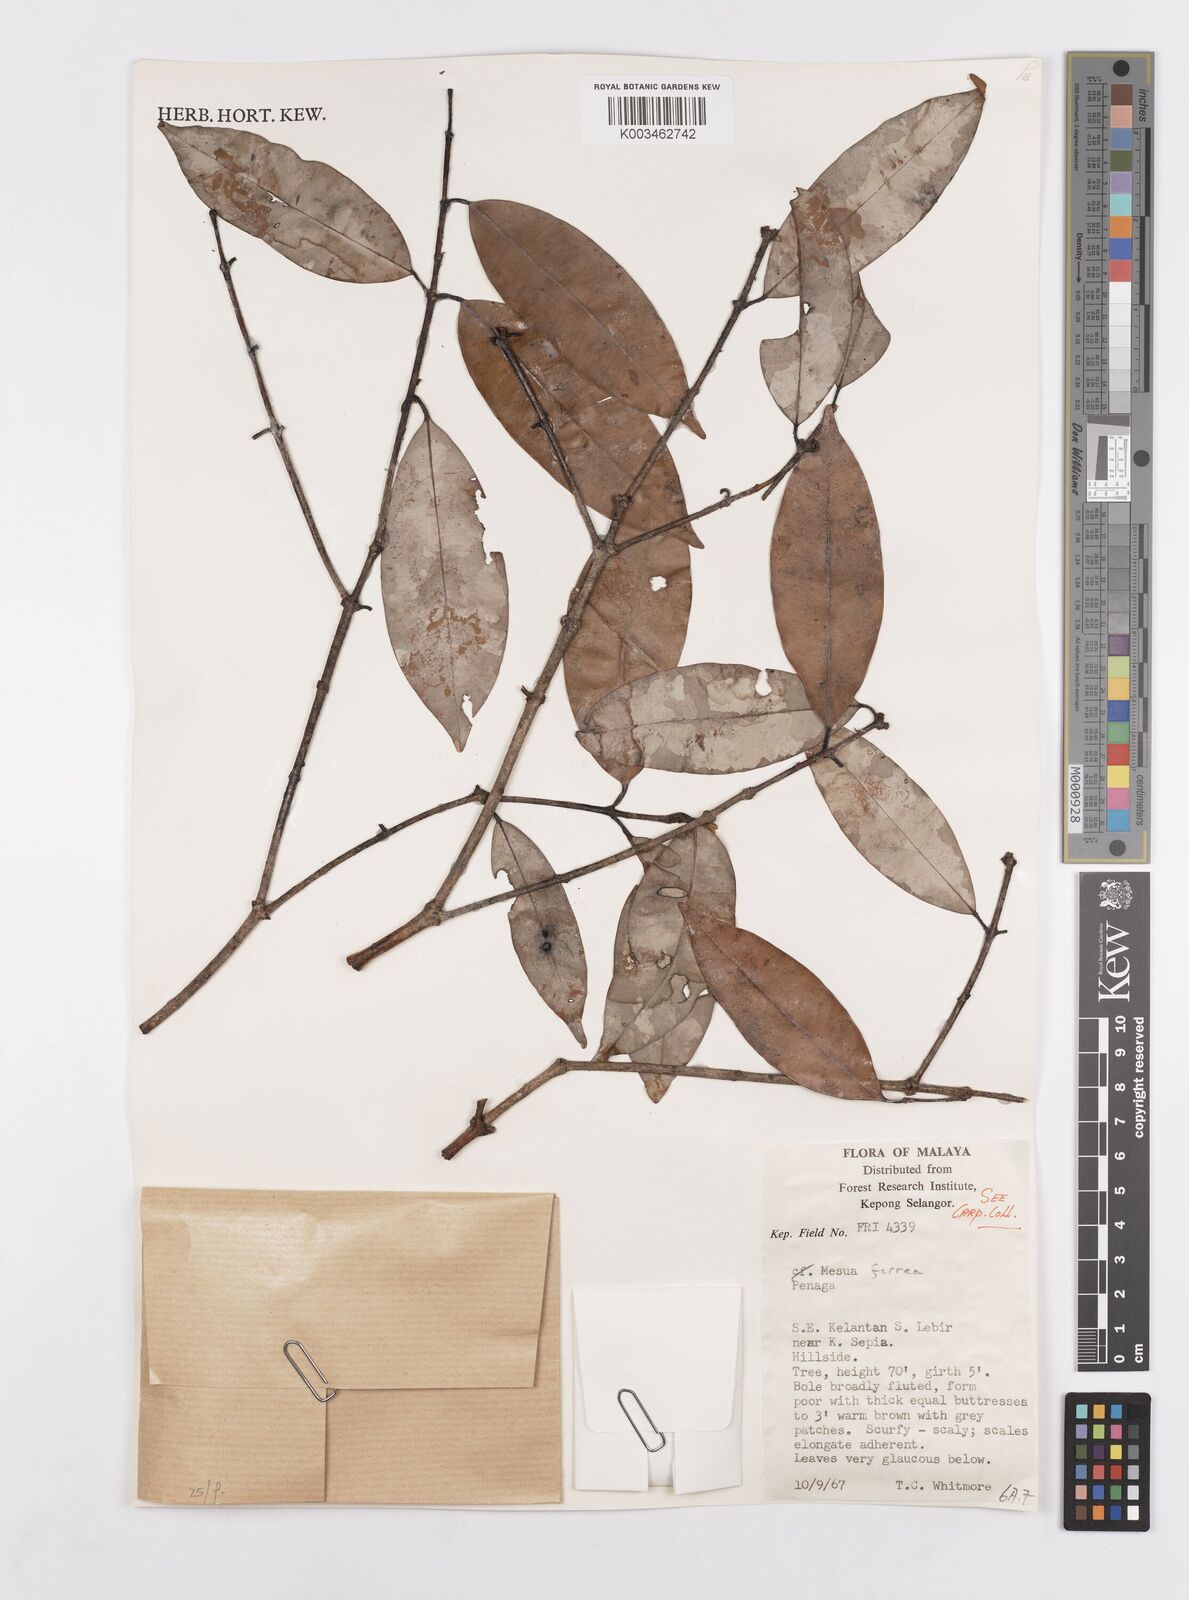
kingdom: Plantae
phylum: Tracheophyta
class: Magnoliopsida
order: Malpighiales
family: Calophyllaceae
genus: Mesua
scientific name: Mesua ferrea
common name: Mesua
